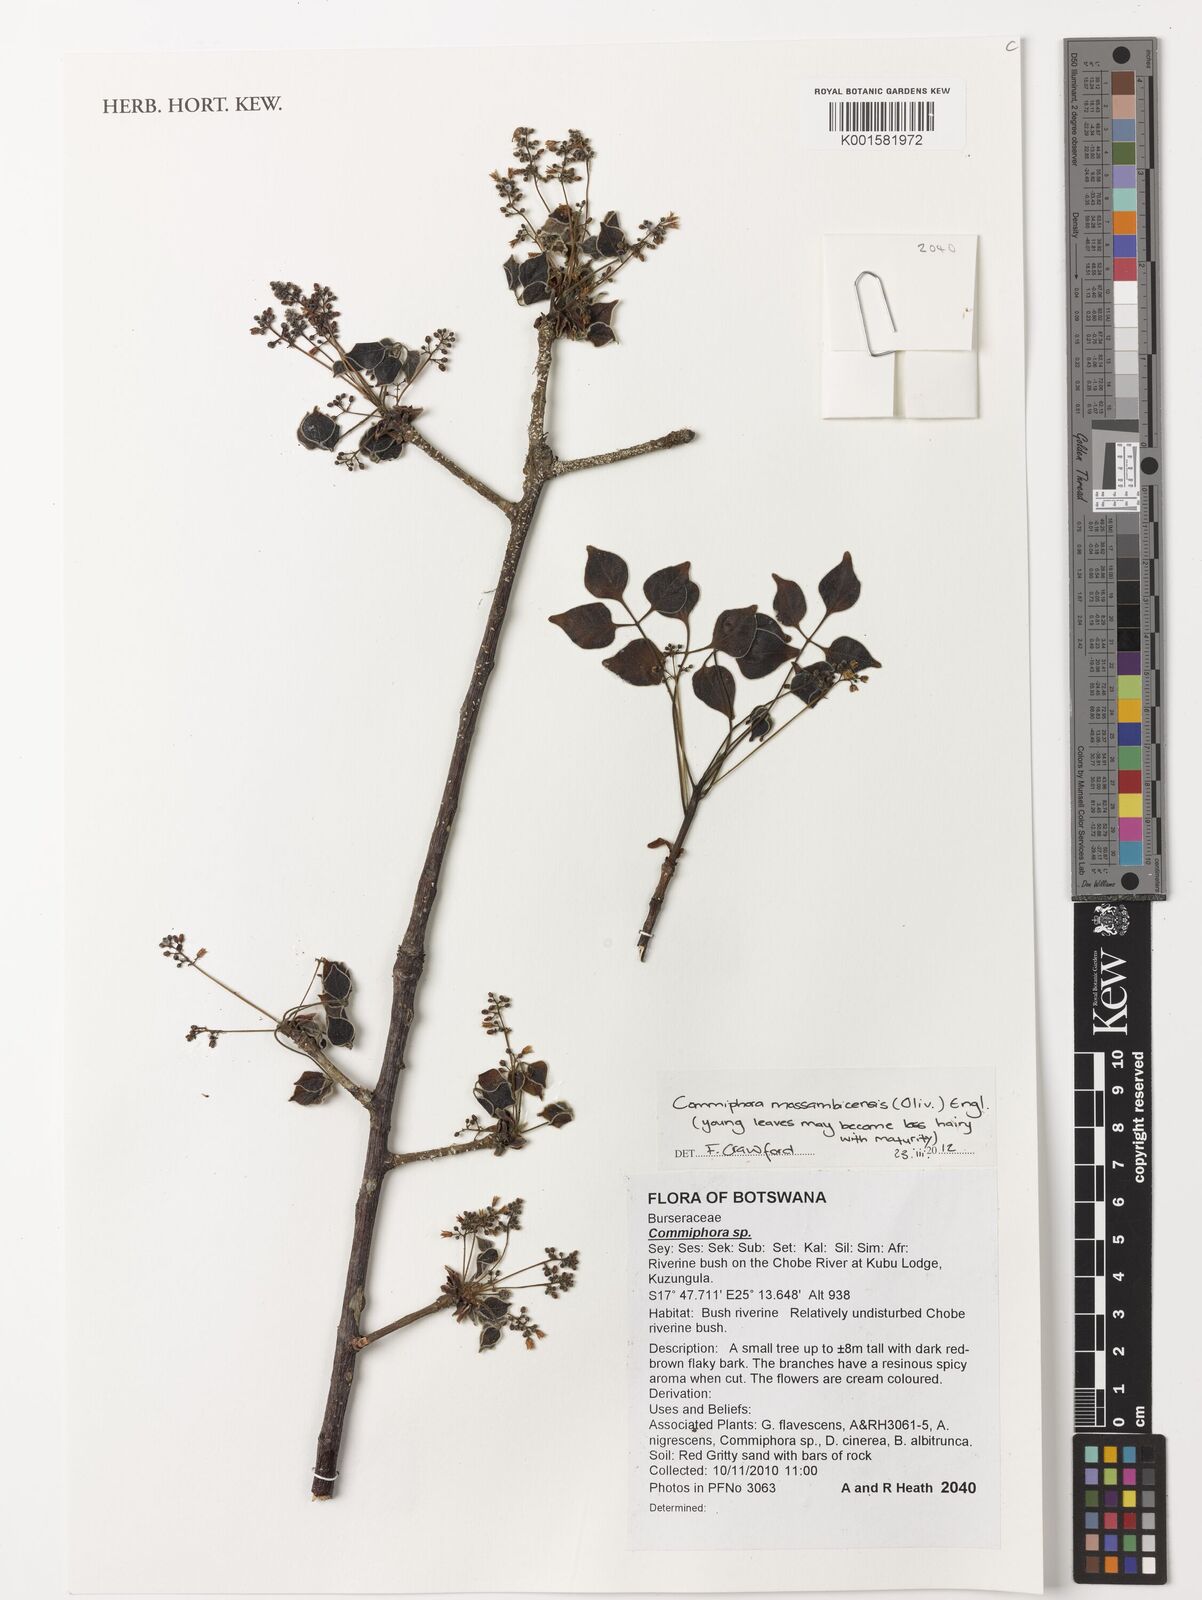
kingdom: Plantae
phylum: Tracheophyta
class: Magnoliopsida
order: Sapindales
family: Burseraceae
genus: Commiphora
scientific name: Commiphora
